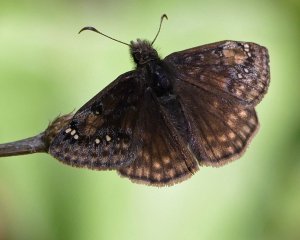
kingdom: Animalia
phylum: Arthropoda
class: Insecta
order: Lepidoptera
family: Hesperiidae
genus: Gesta
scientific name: Gesta
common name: Wild Indigo Duskywing
